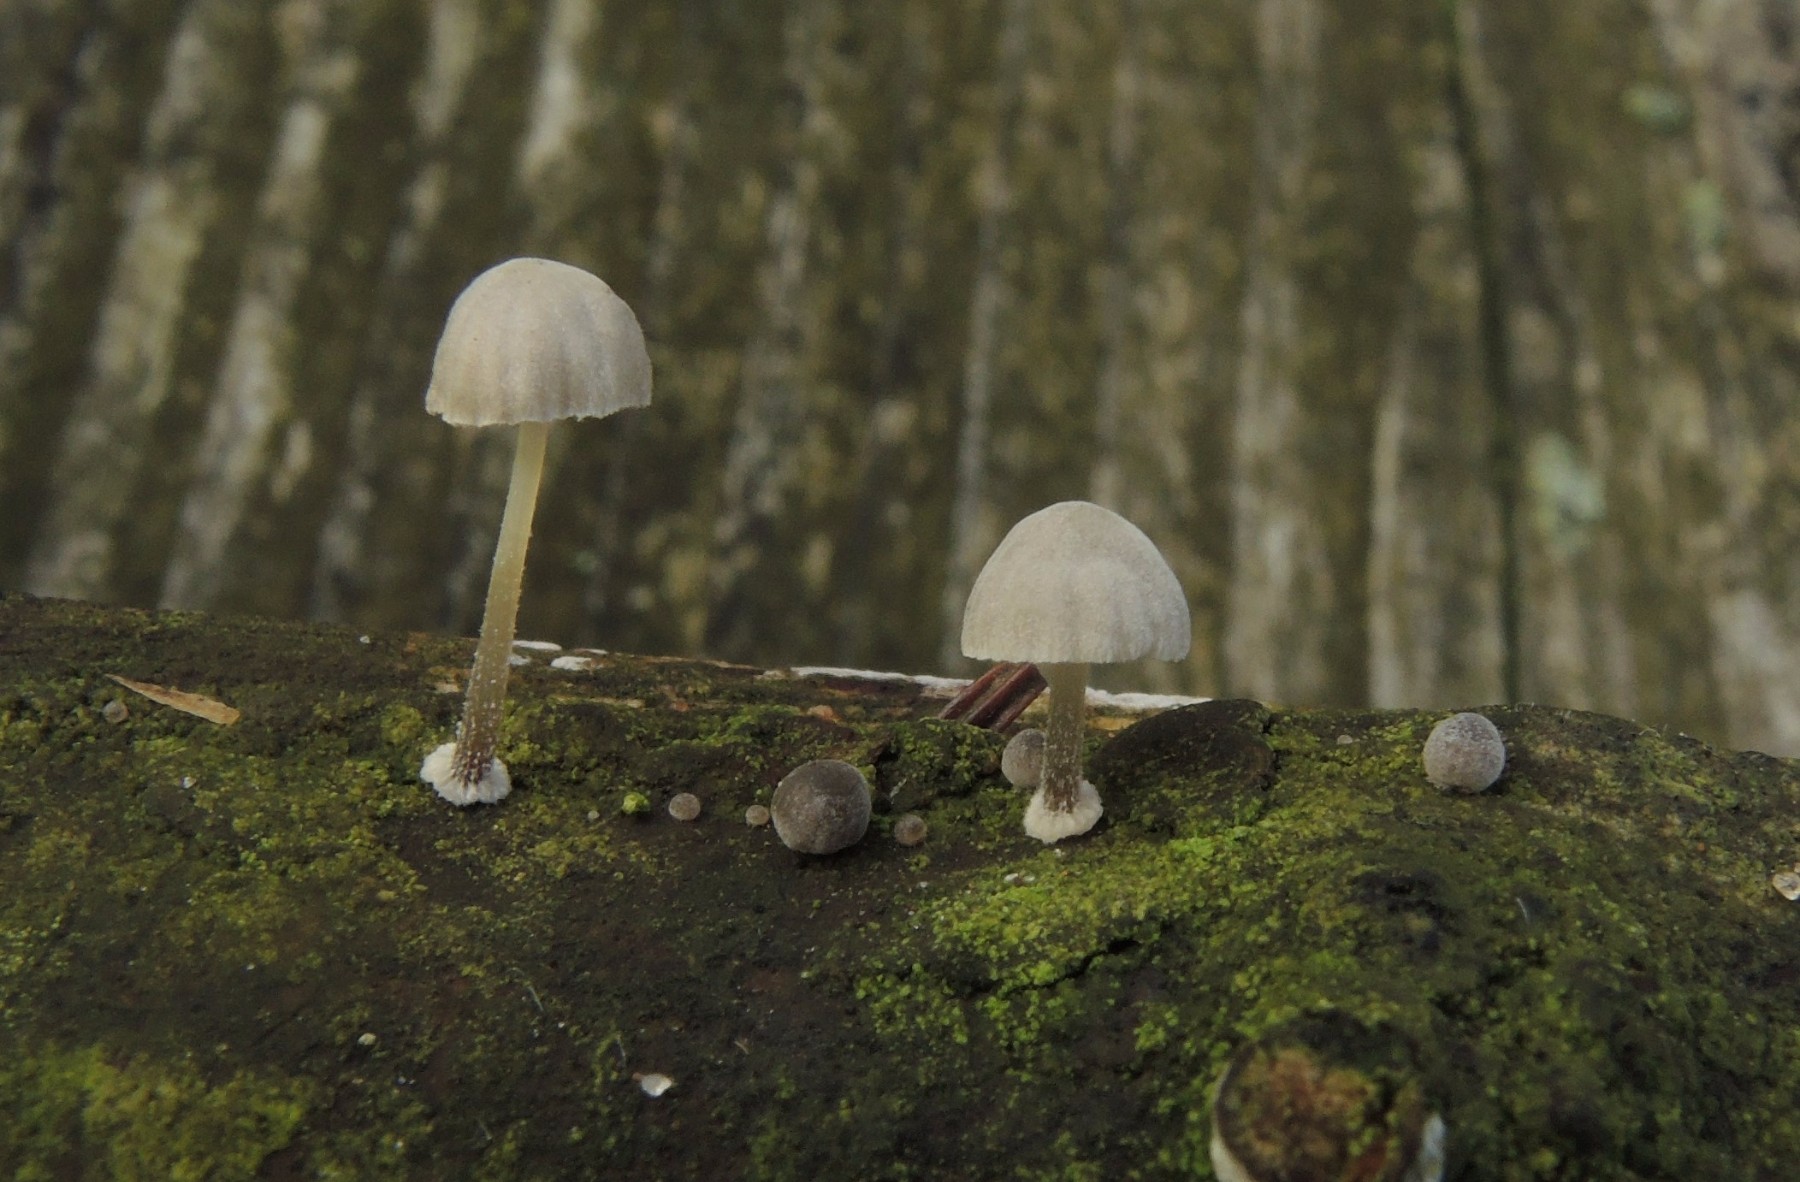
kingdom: Fungi
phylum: Basidiomycota
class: Agaricomycetes
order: Agaricales
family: Mycenaceae
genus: Mycena
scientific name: Mycena clavularis
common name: dunskivet huesvamp
